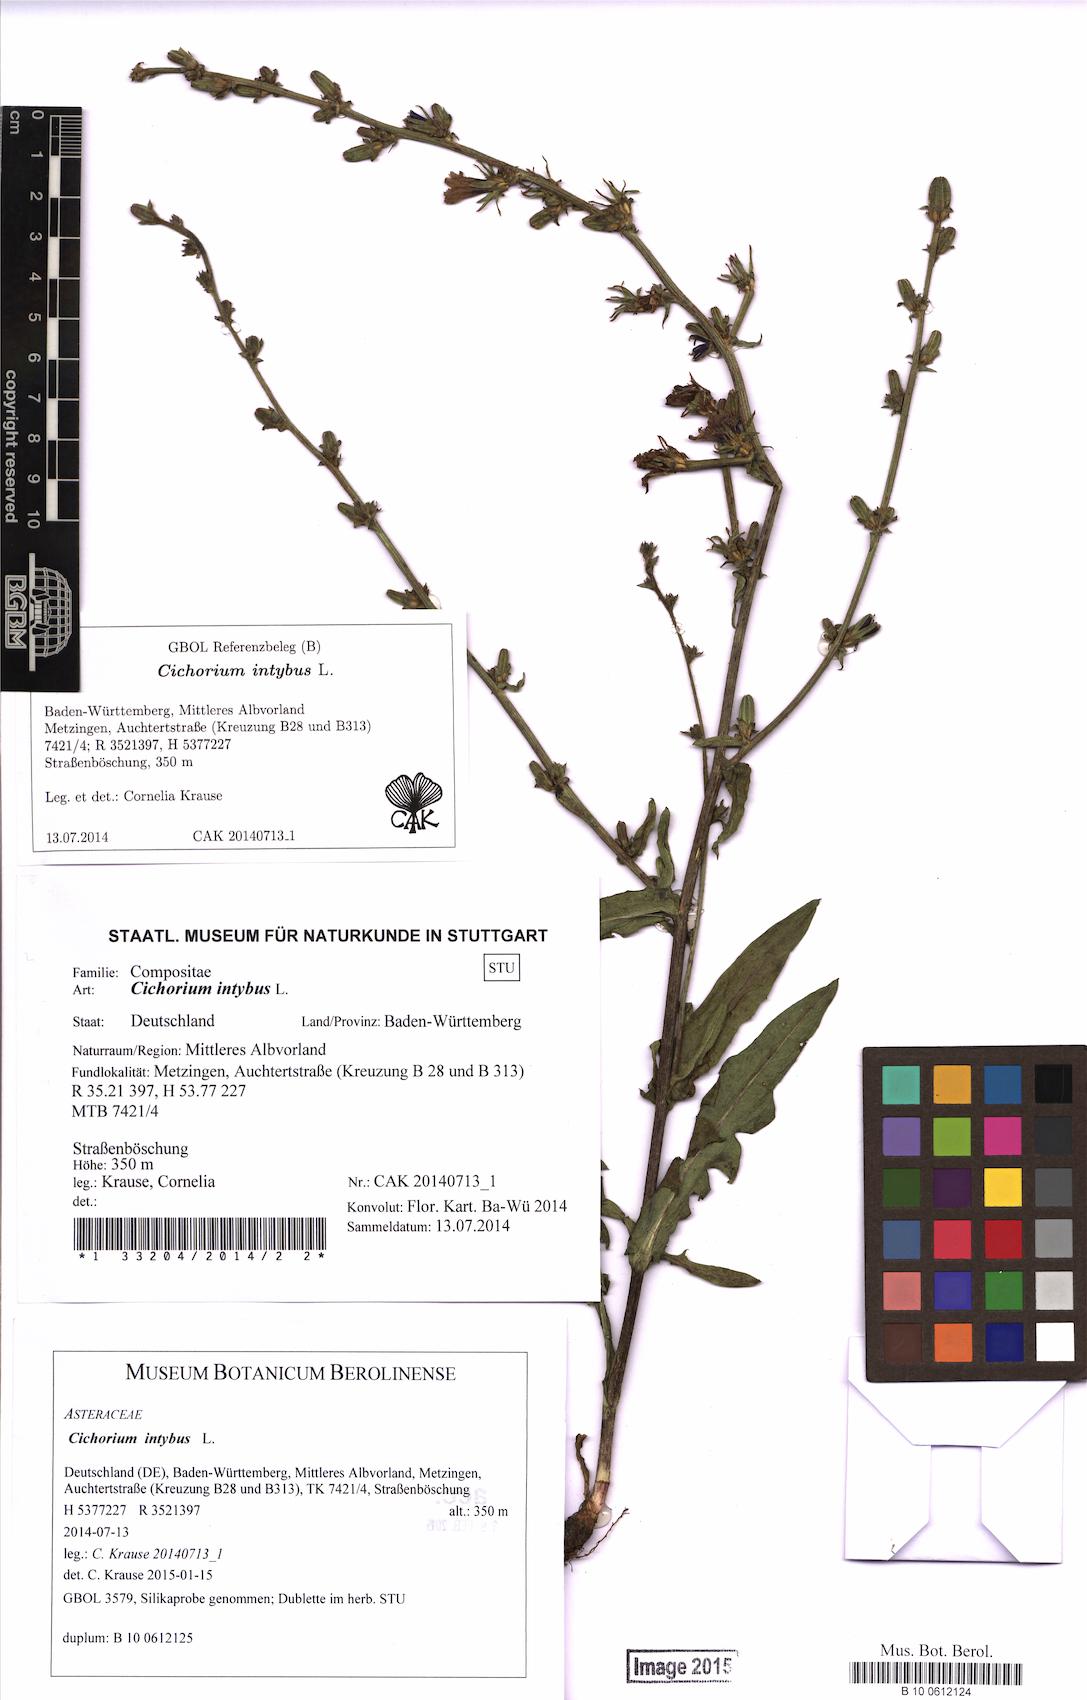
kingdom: Plantae
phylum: Tracheophyta
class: Magnoliopsida
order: Asterales
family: Asteraceae
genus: Cichorium
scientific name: Cichorium intybus
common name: Chicory
